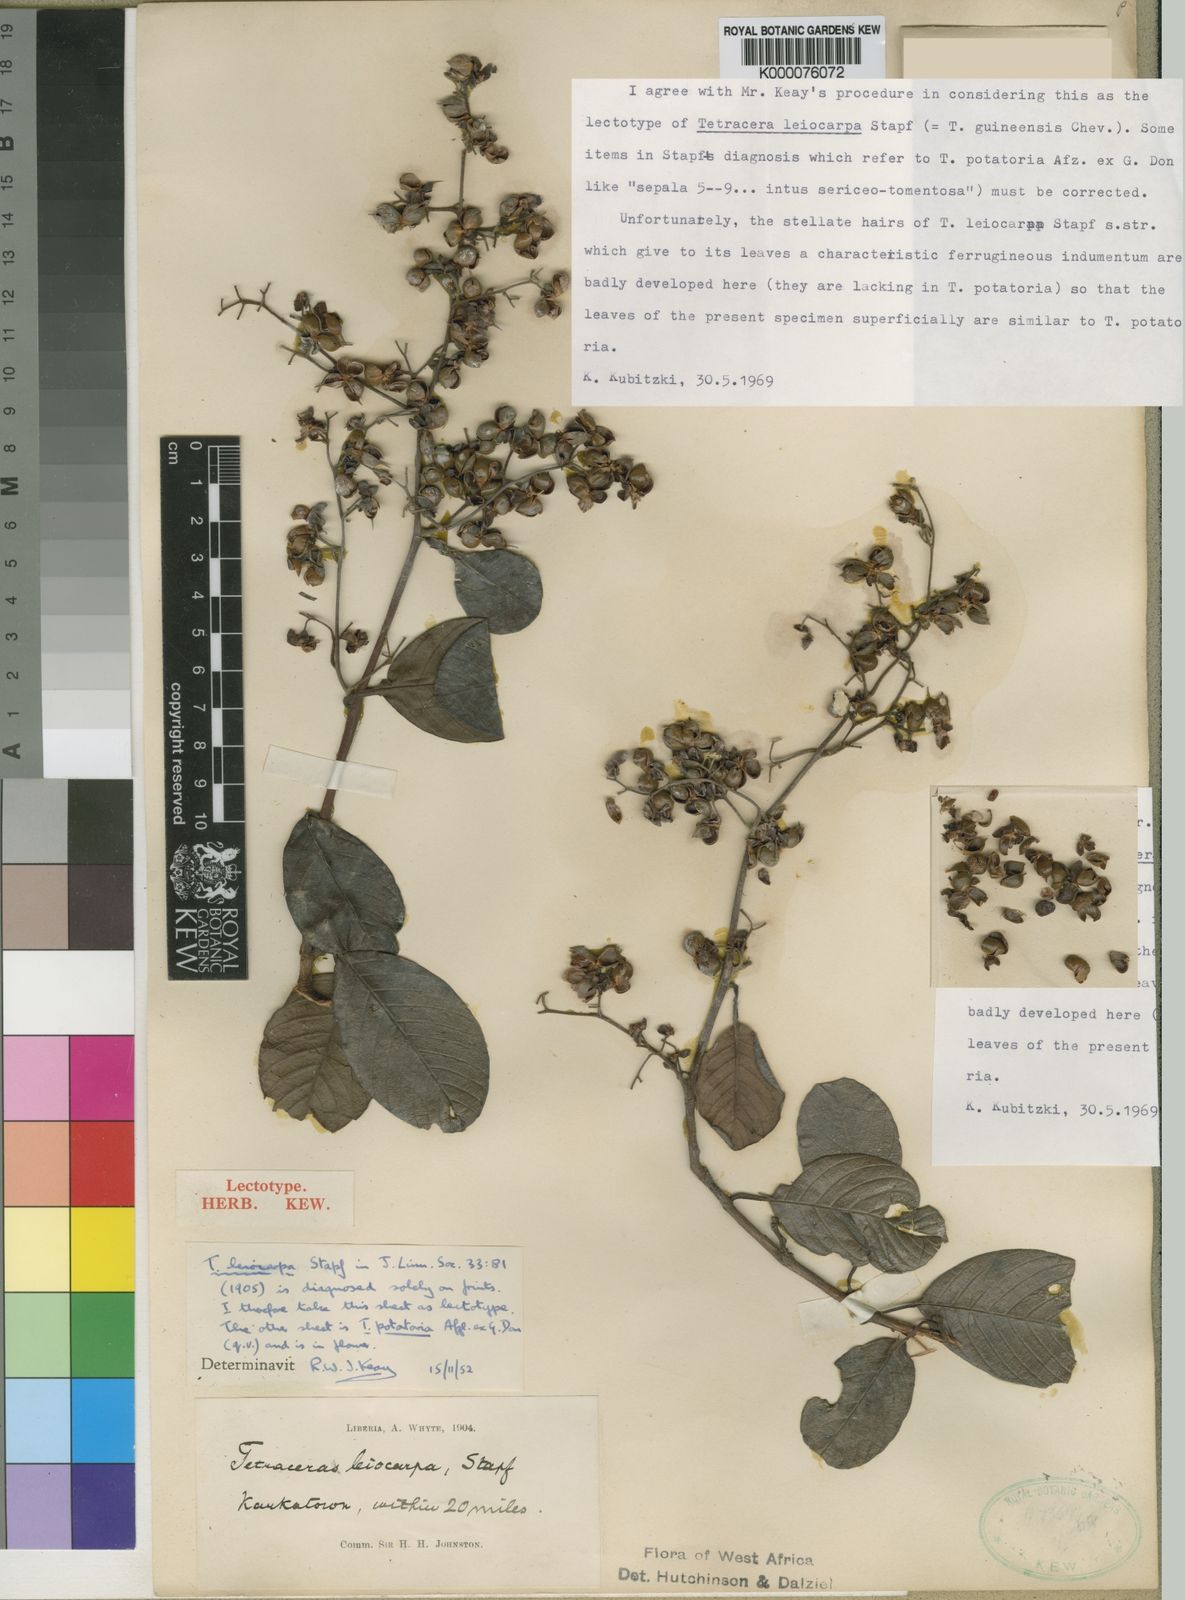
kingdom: Plantae
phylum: Tracheophyta
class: Magnoliopsida
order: Dilleniales
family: Dilleniaceae
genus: Tetracera
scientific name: Tetracera alnifolia
